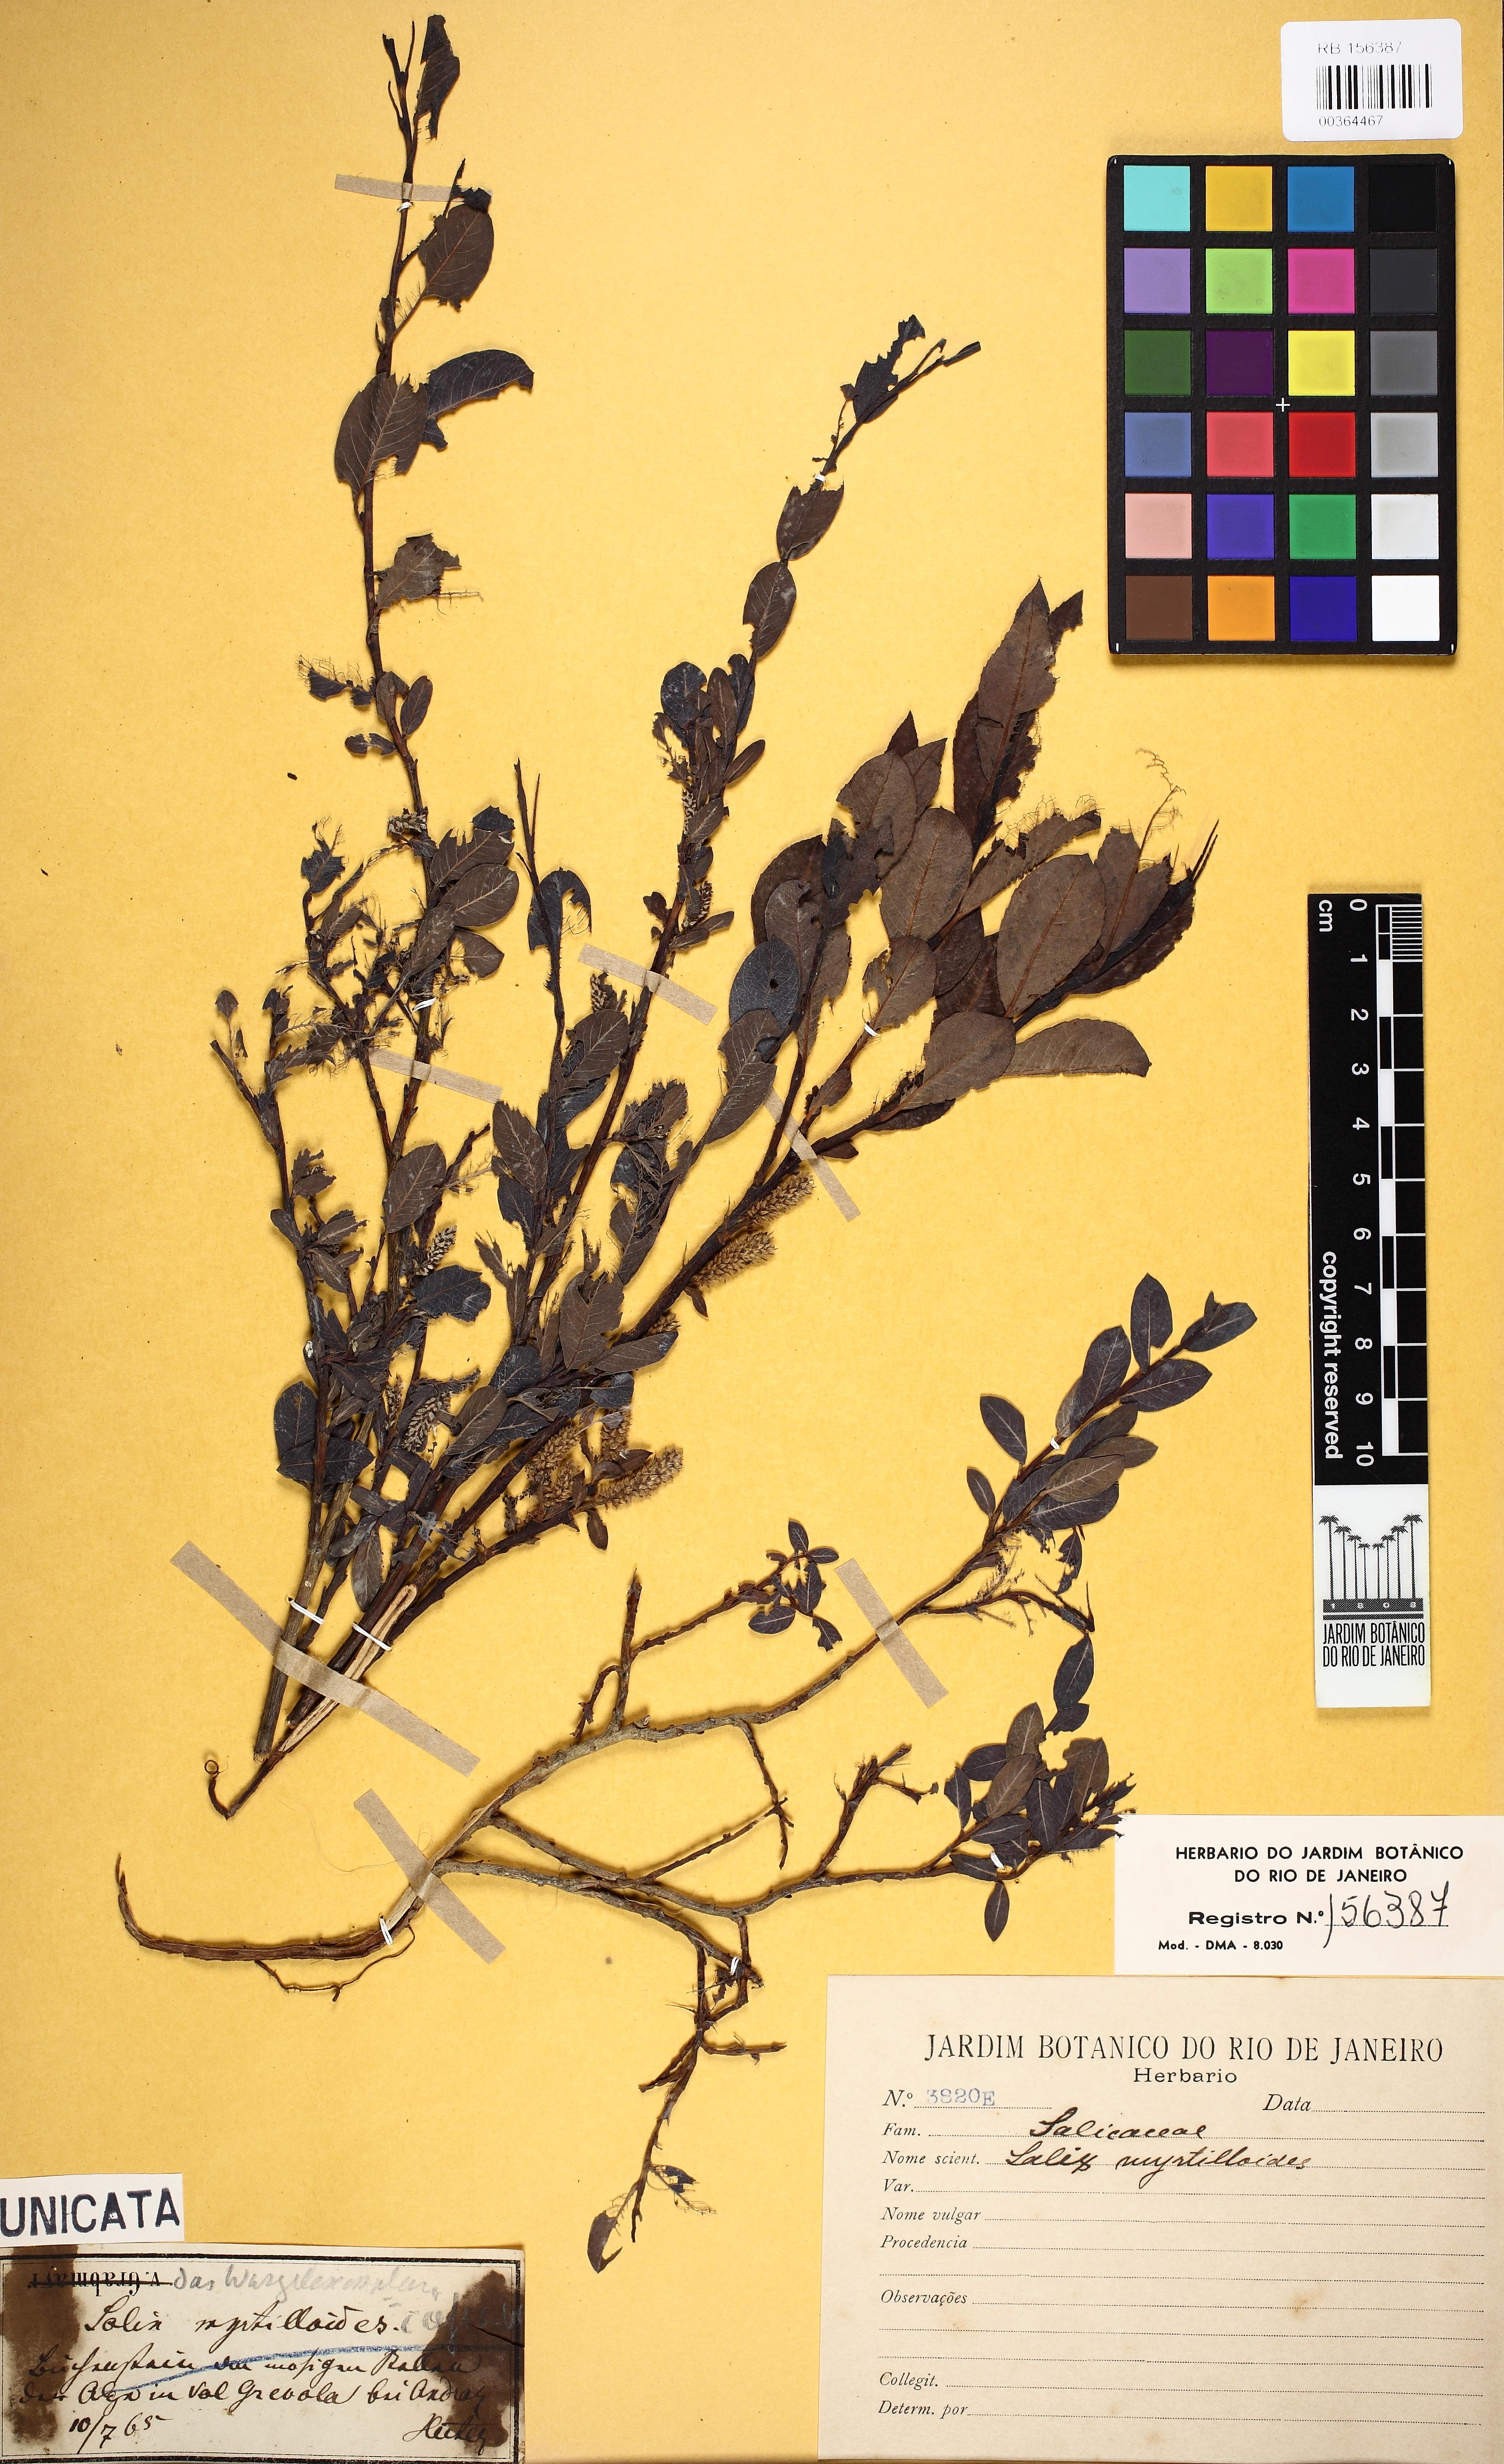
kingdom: Plantae
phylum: Tracheophyta
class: Magnoliopsida
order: Malpighiales
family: Salicaceae
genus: Salix
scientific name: Salix myrtilloides
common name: Myrtle-leaved willow
